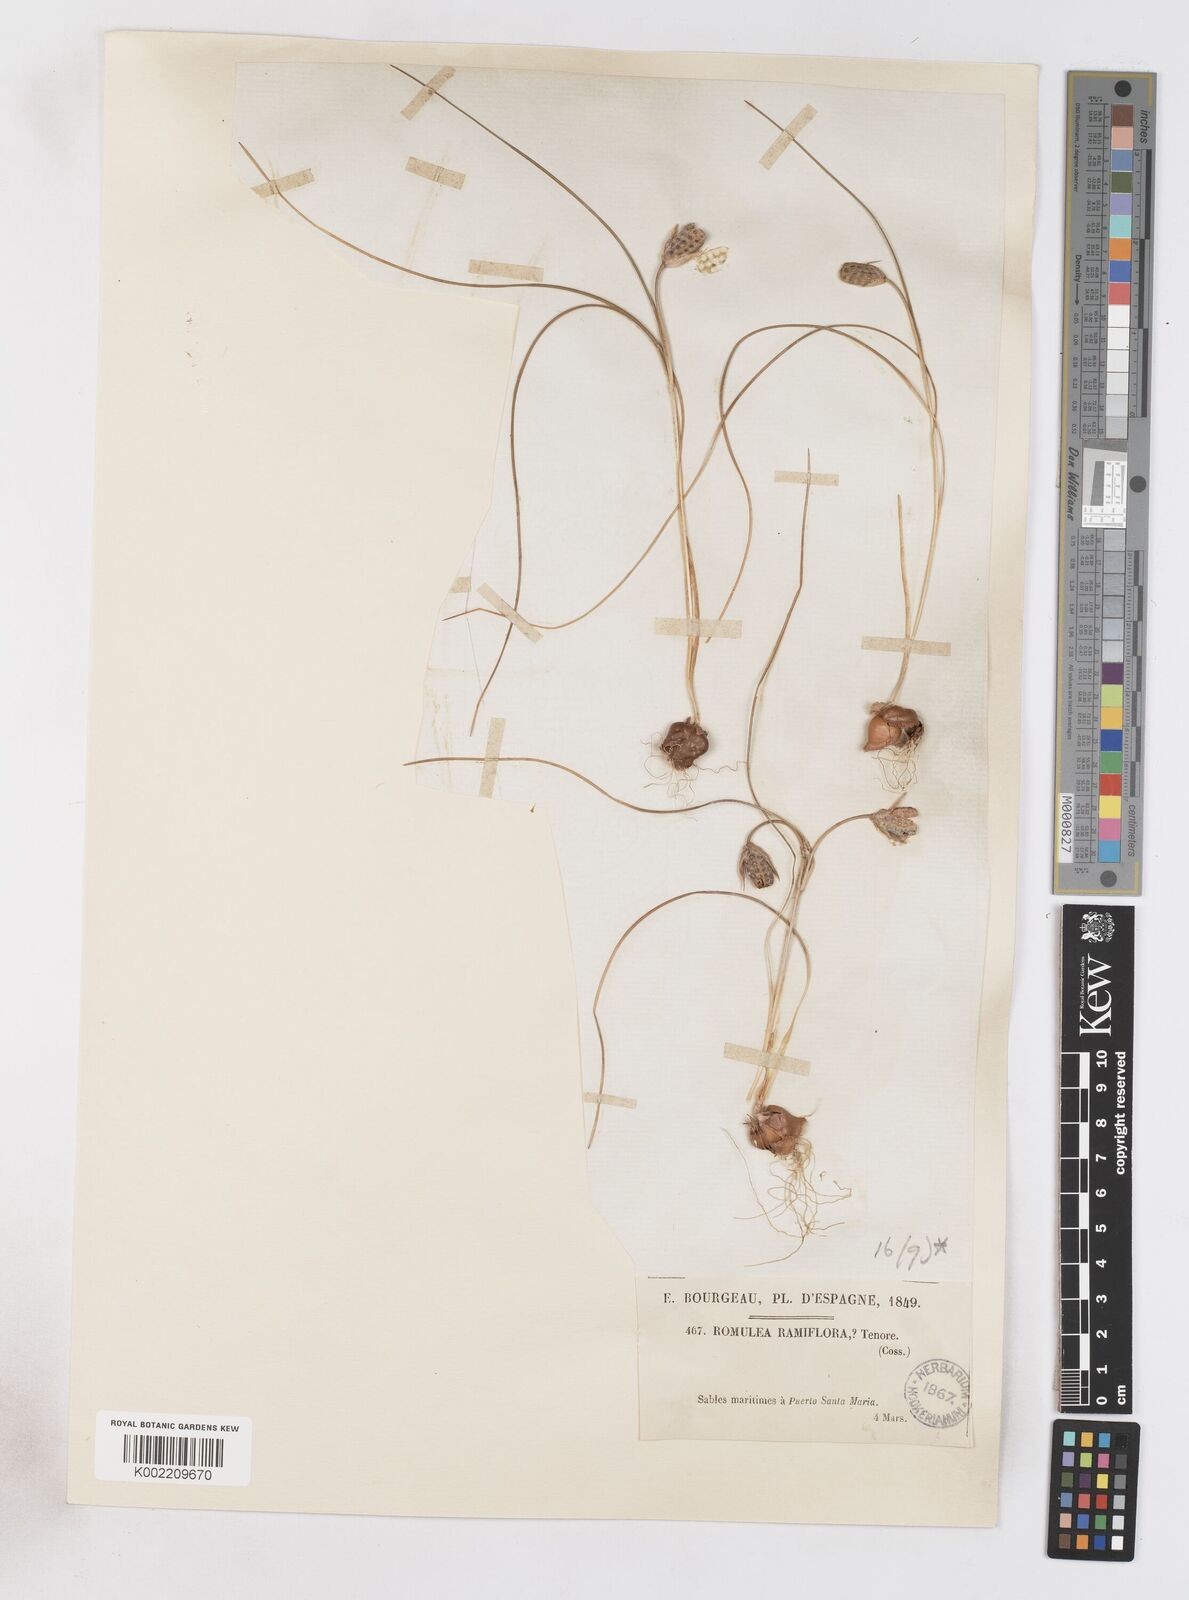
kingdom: Plantae
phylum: Tracheophyta
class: Liliopsida
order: Asparagales
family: Iridaceae
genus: Romulea
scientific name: Romulea ramiflora
